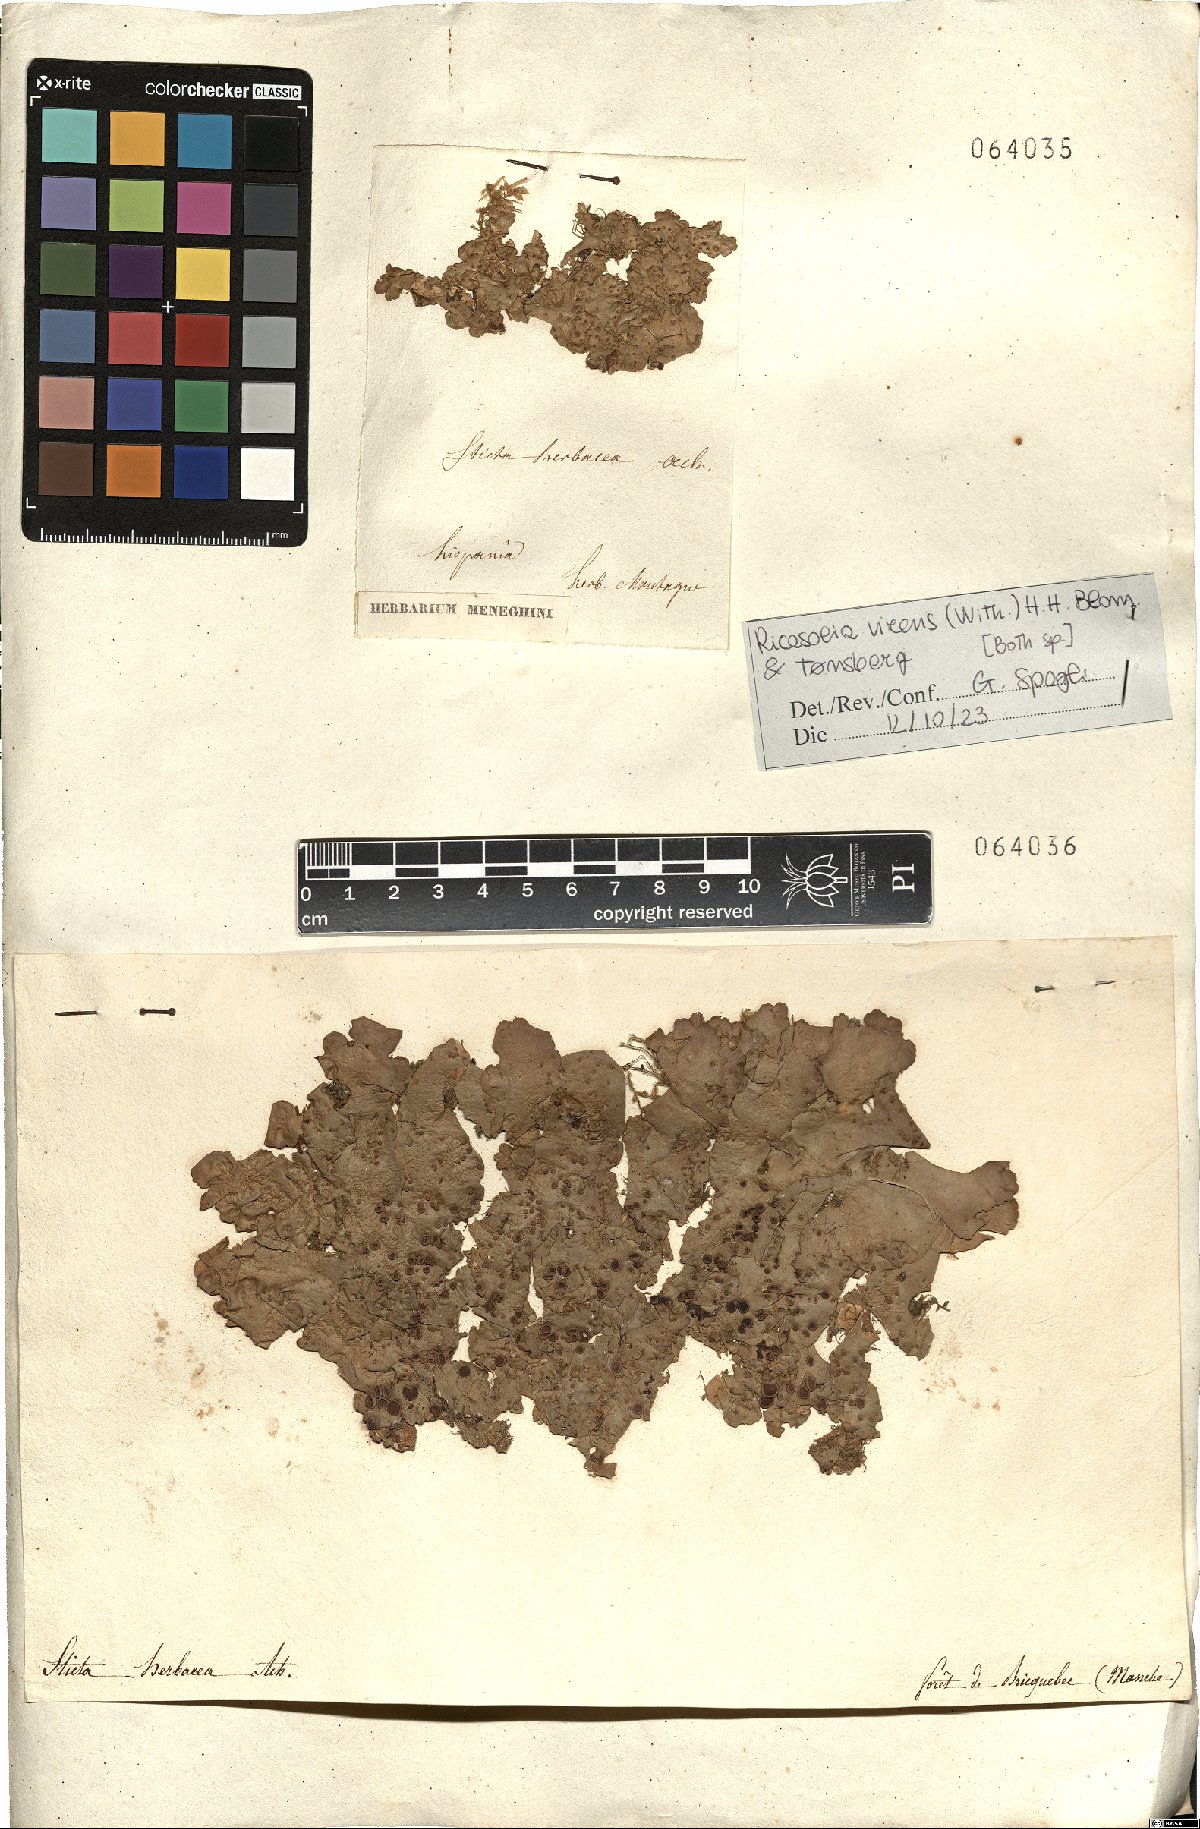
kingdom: Fungi
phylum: Ascomycota
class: Lecanoromycetes
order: Peltigerales
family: Lobariaceae
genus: Ricasolia
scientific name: Ricasolia virens
